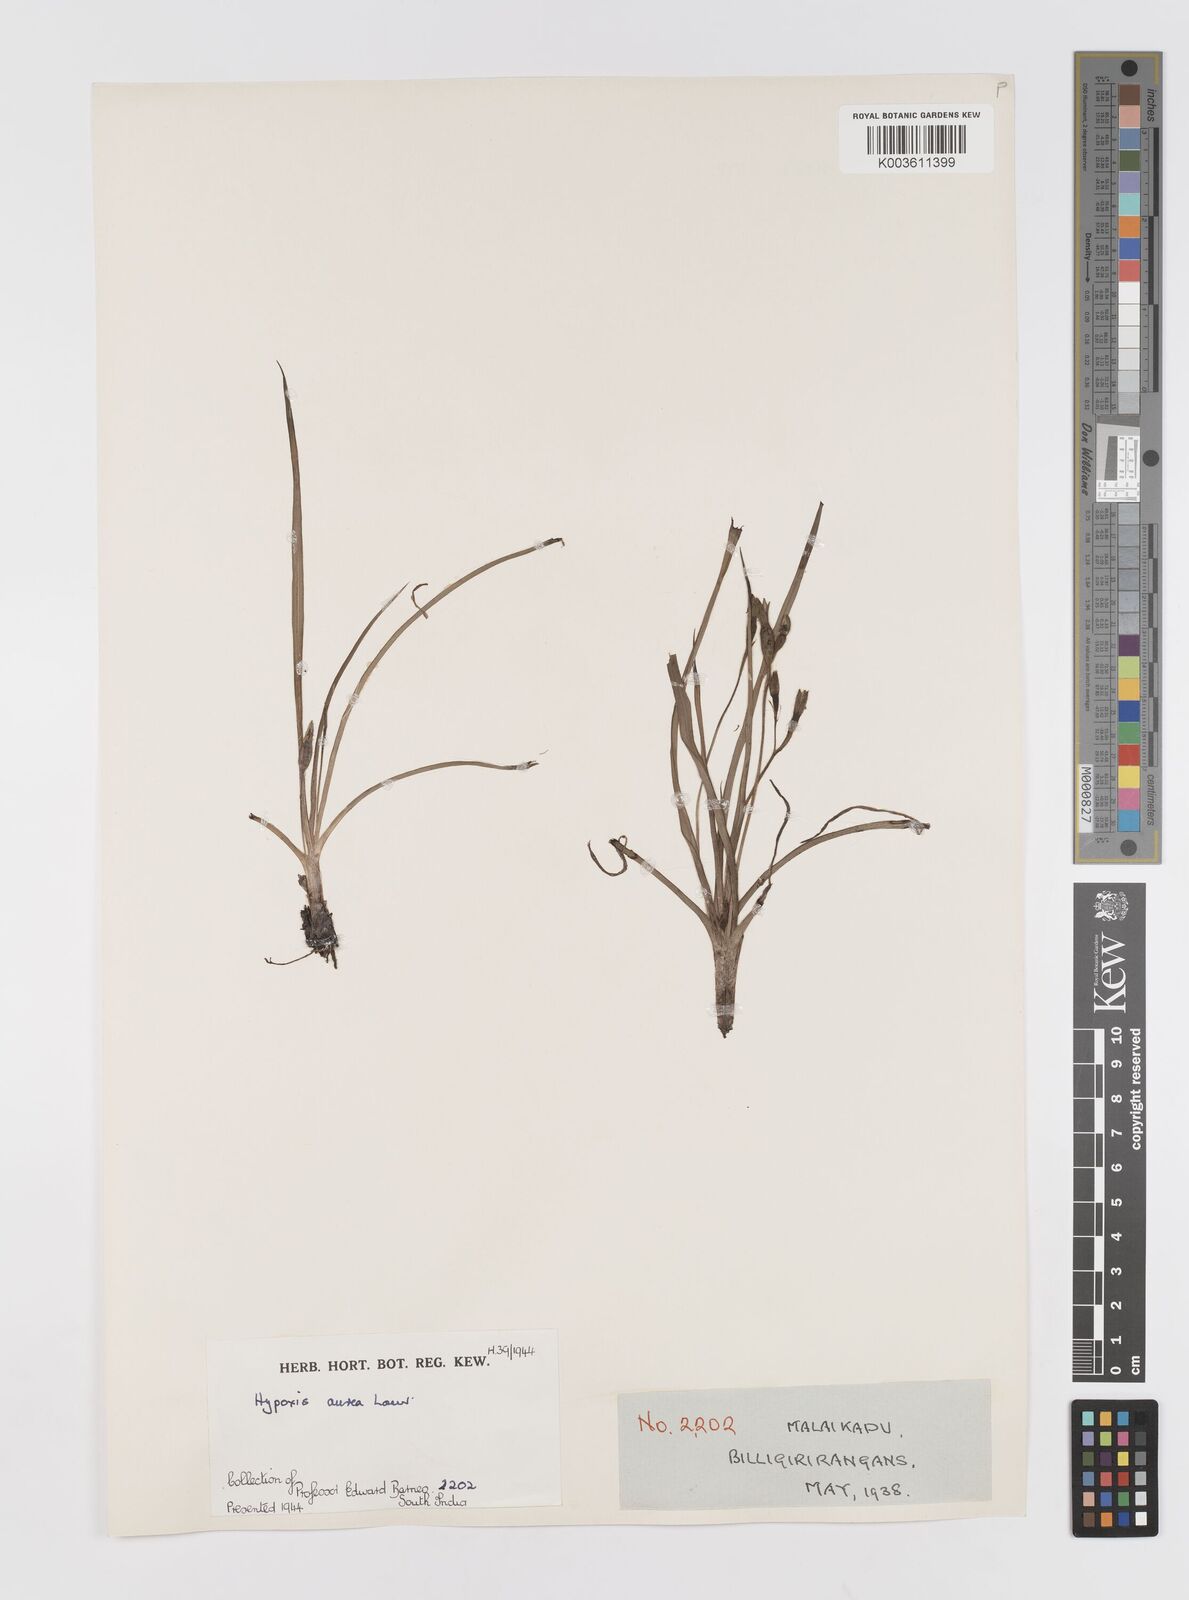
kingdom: Plantae
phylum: Tracheophyta
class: Liliopsida
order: Asparagales
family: Hypoxidaceae
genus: Hypoxis
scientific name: Hypoxis aurea
